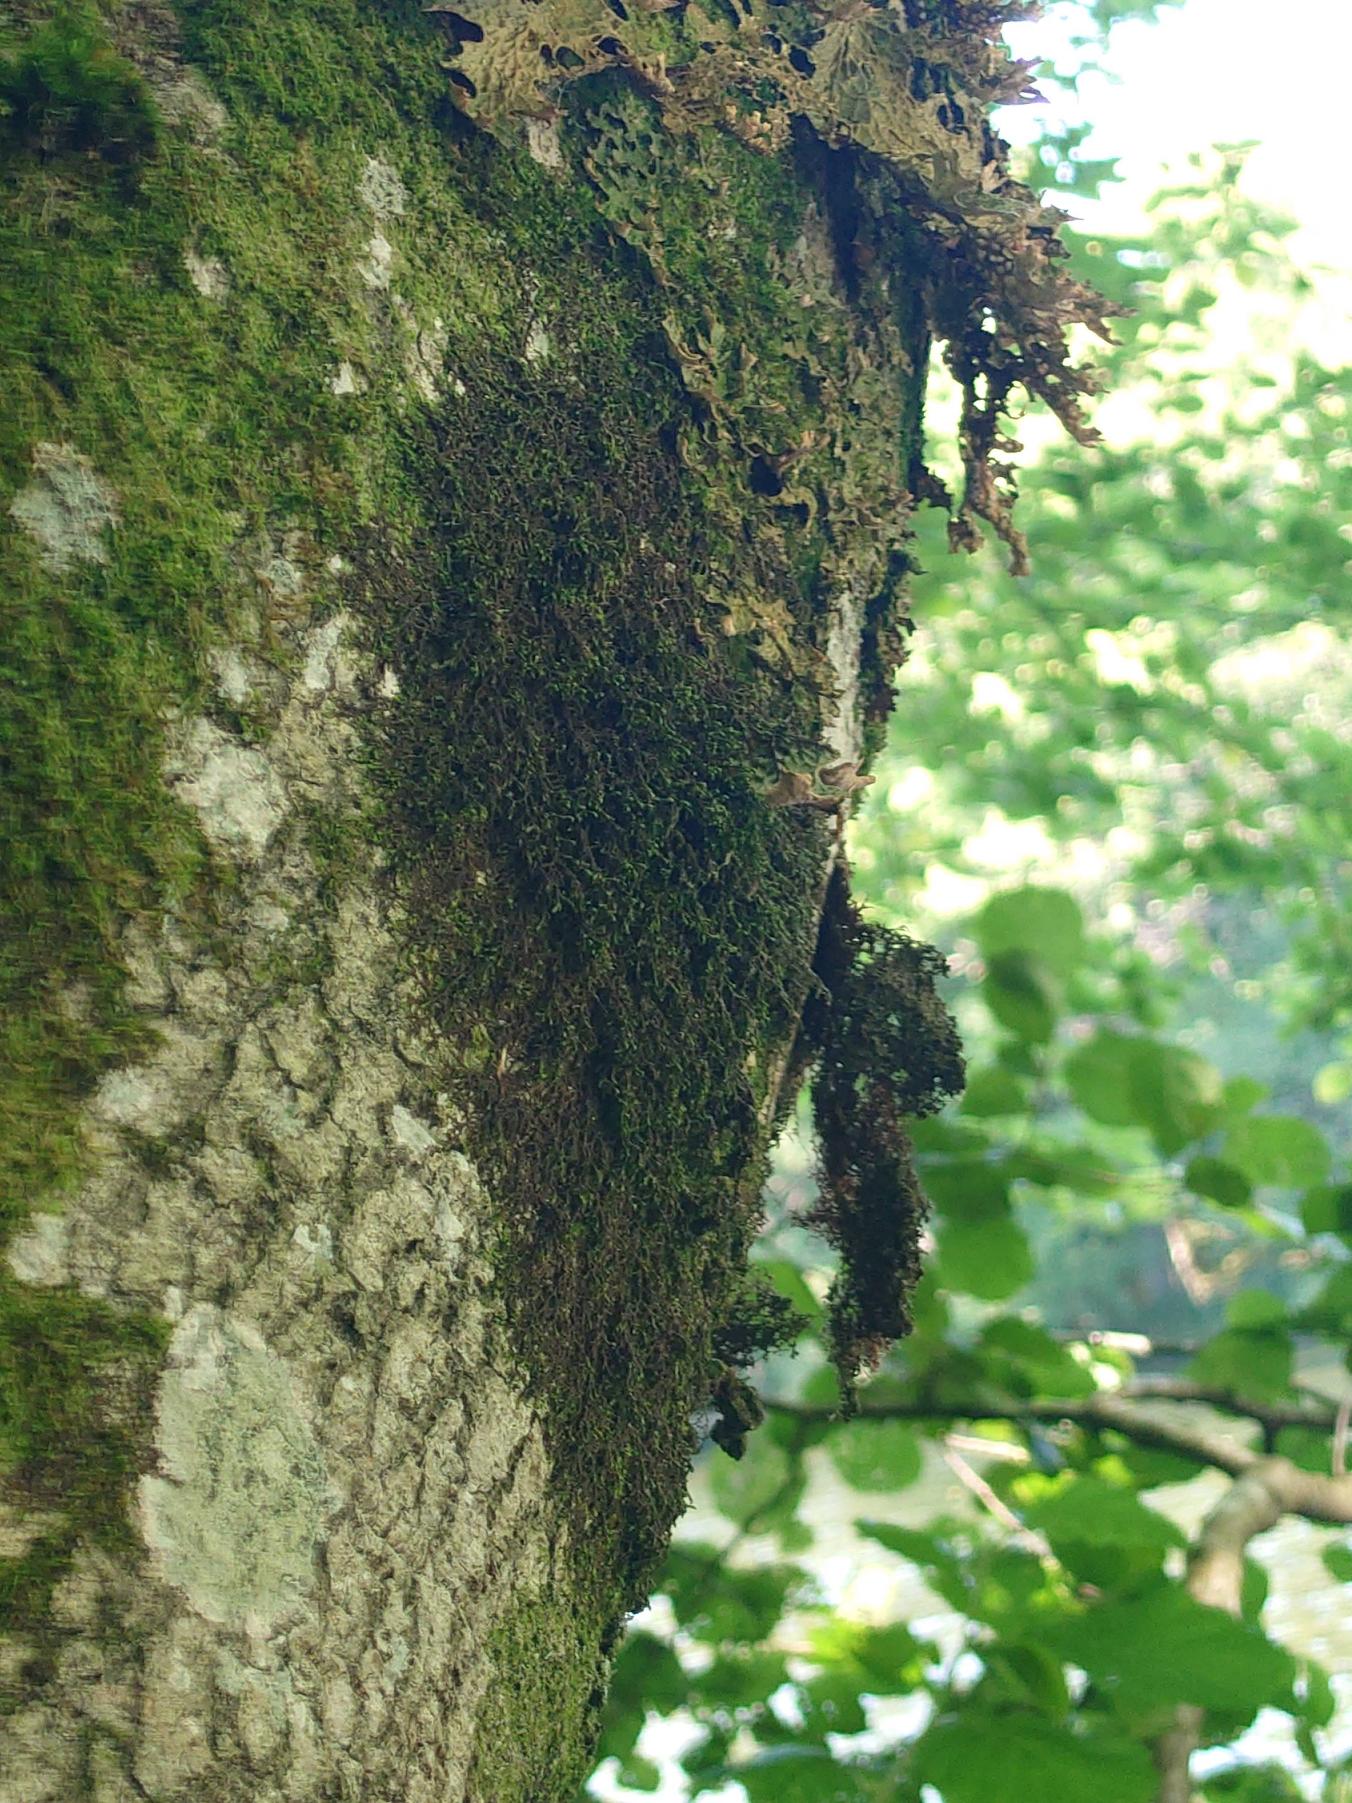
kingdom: Fungi
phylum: Ascomycota
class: Lecanoromycetes
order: Peltigerales
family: Lobariaceae
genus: Lobaria
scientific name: Lobaria pulmonaria
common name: Almindelig lungelav
